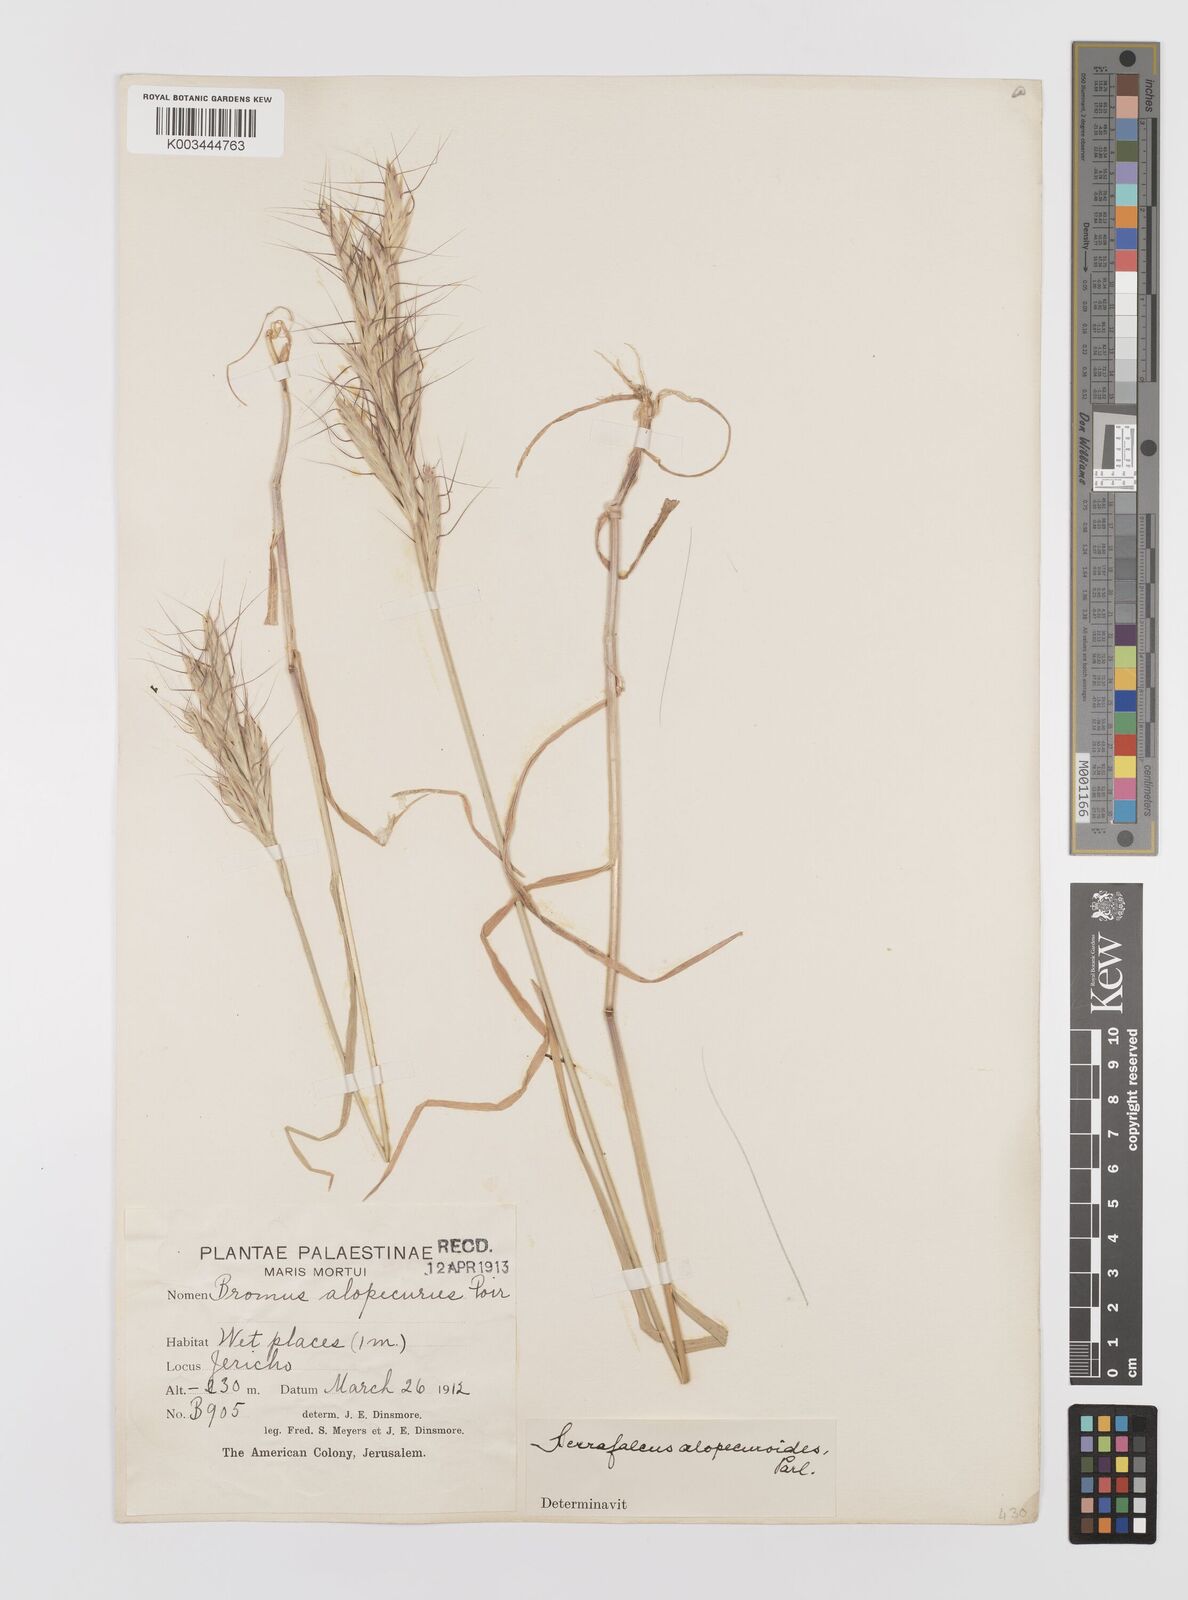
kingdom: Plantae
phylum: Tracheophyta
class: Liliopsida
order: Poales
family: Poaceae
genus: Bromus
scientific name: Bromus alopecuros
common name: Weedy brome
